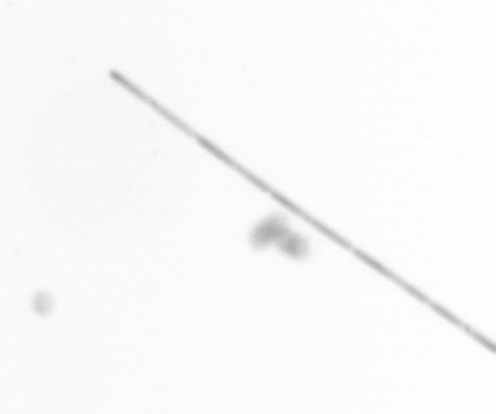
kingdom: Chromista
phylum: Ochrophyta
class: Bacillariophyceae
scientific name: Bacillariophyceae
